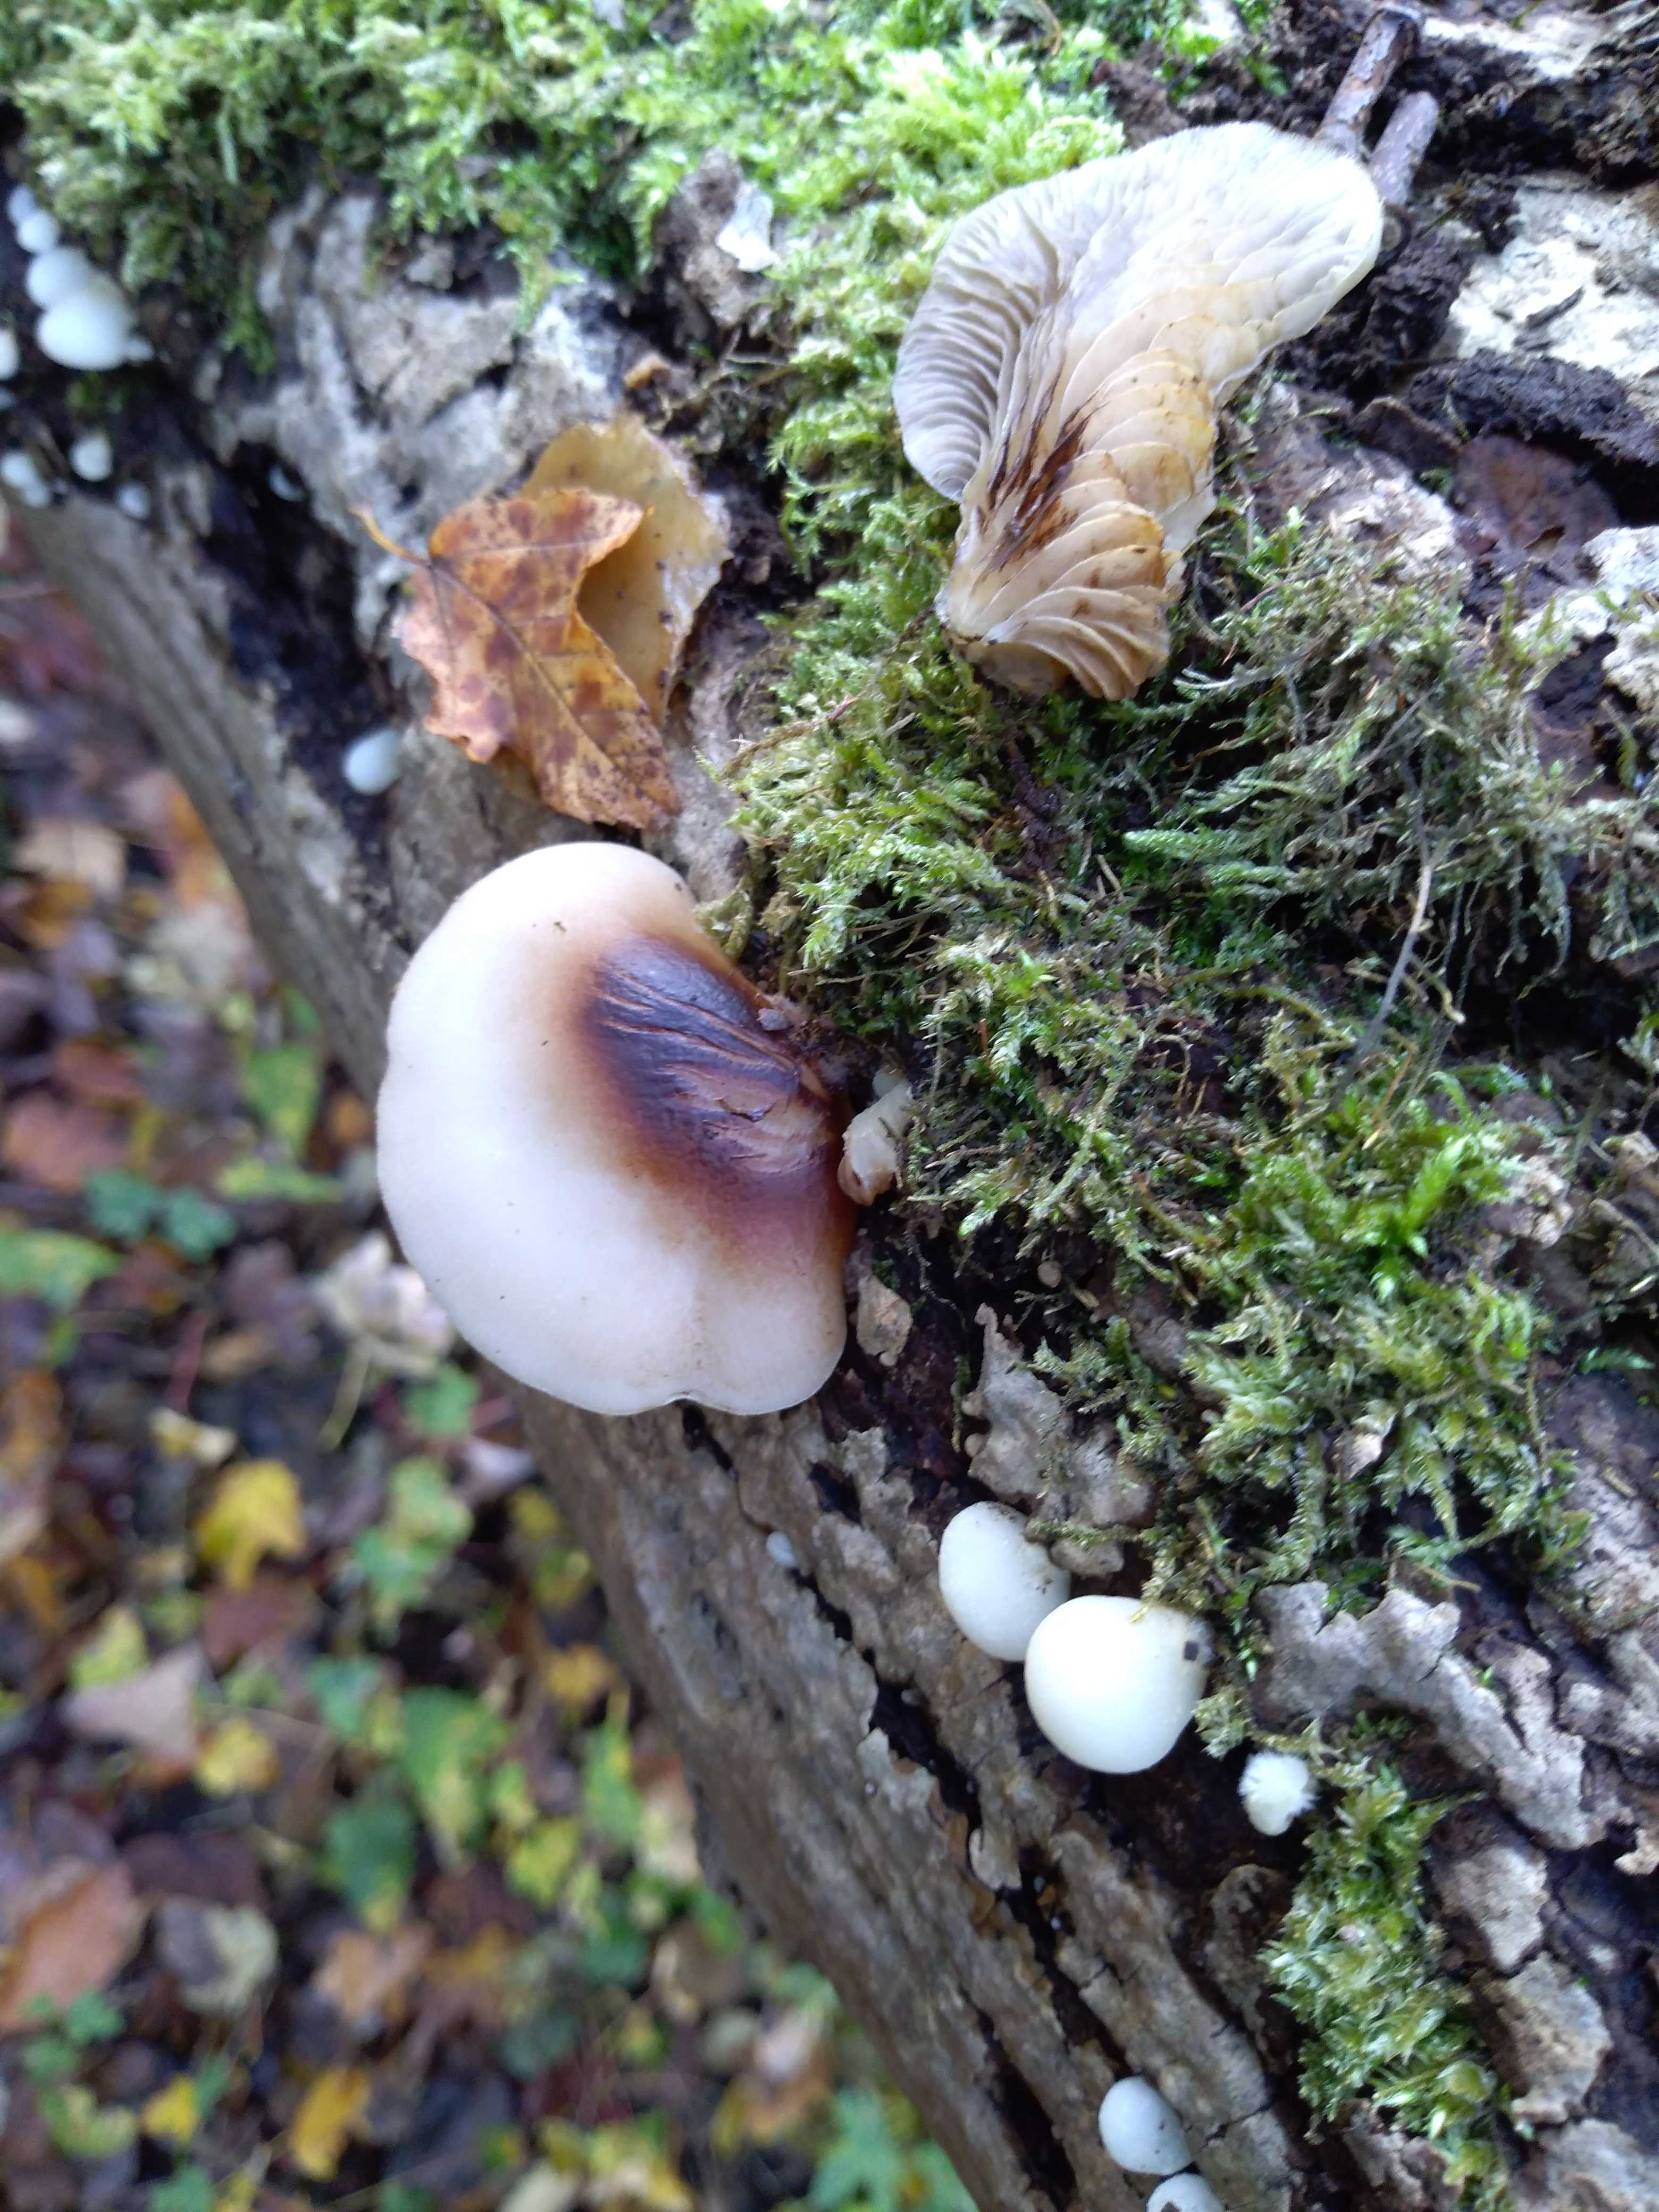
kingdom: Fungi
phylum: Basidiomycota
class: Agaricomycetes
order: Agaricales
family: Crepidotaceae
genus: Crepidotus
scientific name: Crepidotus mollis
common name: blød muslingesvamp
